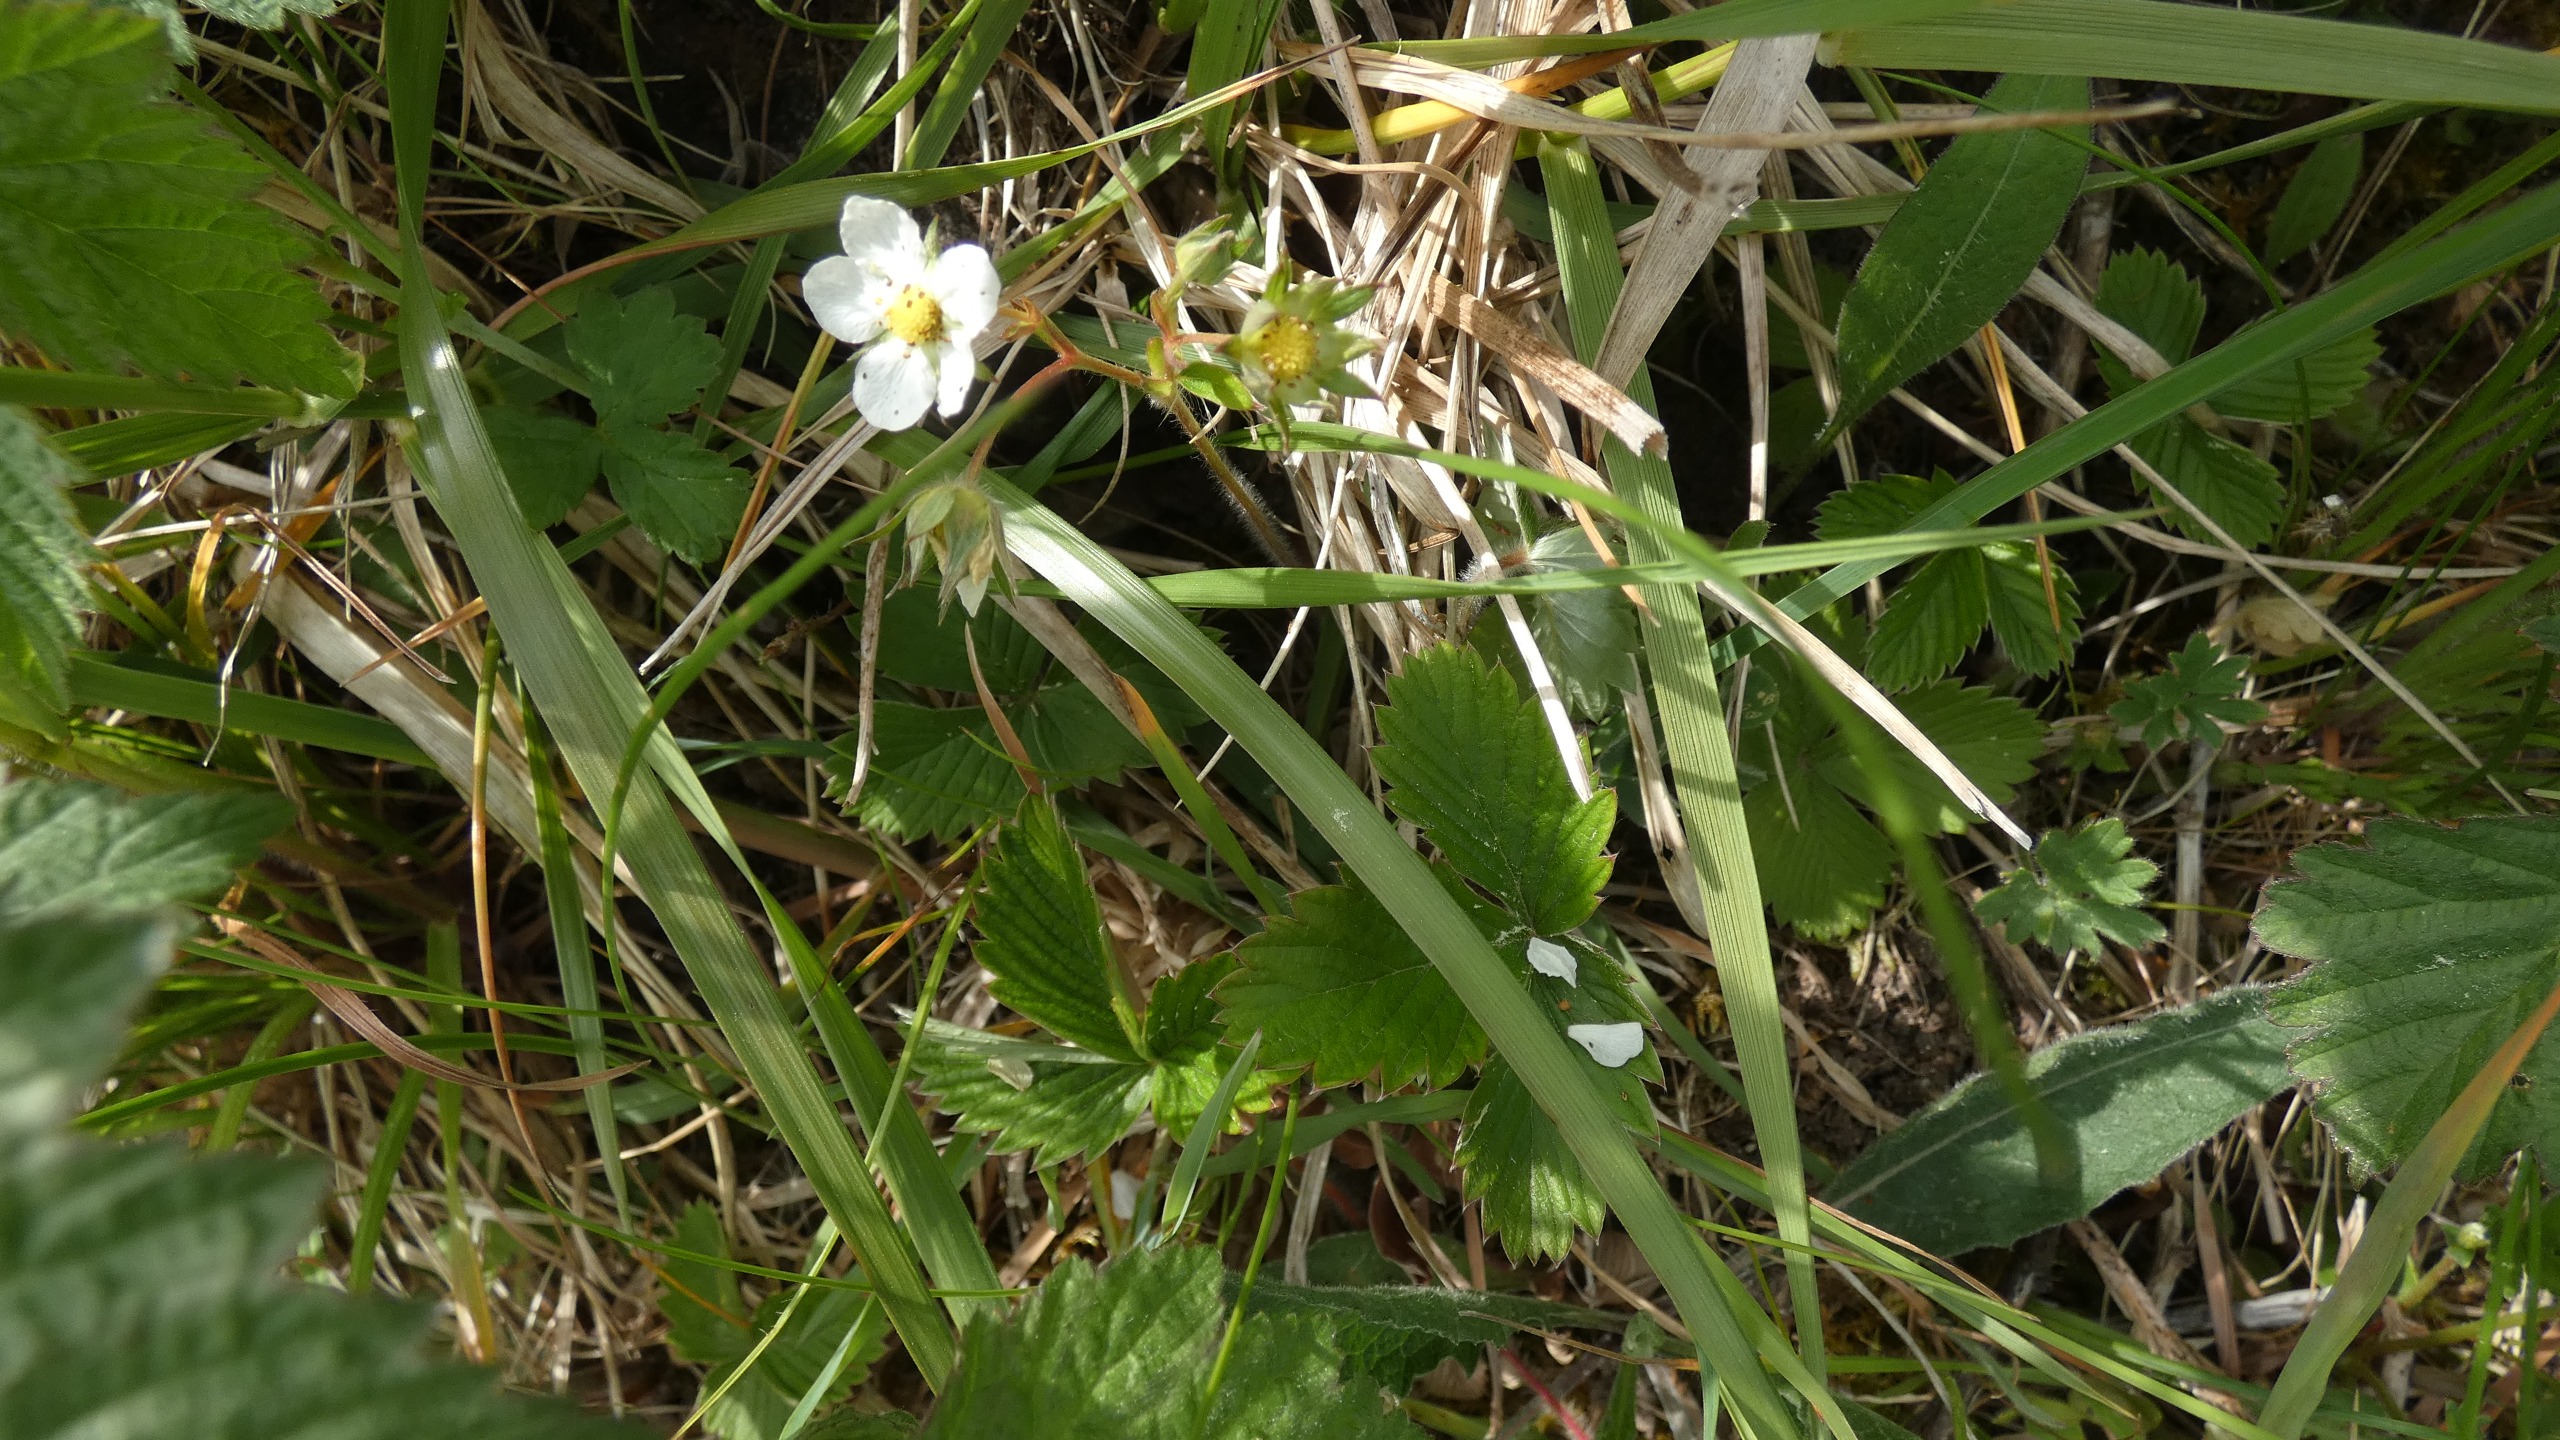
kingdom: Plantae
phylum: Tracheophyta
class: Magnoliopsida
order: Rosales
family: Rosaceae
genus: Fragaria
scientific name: Fragaria vesca
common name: Skov-jordbær
